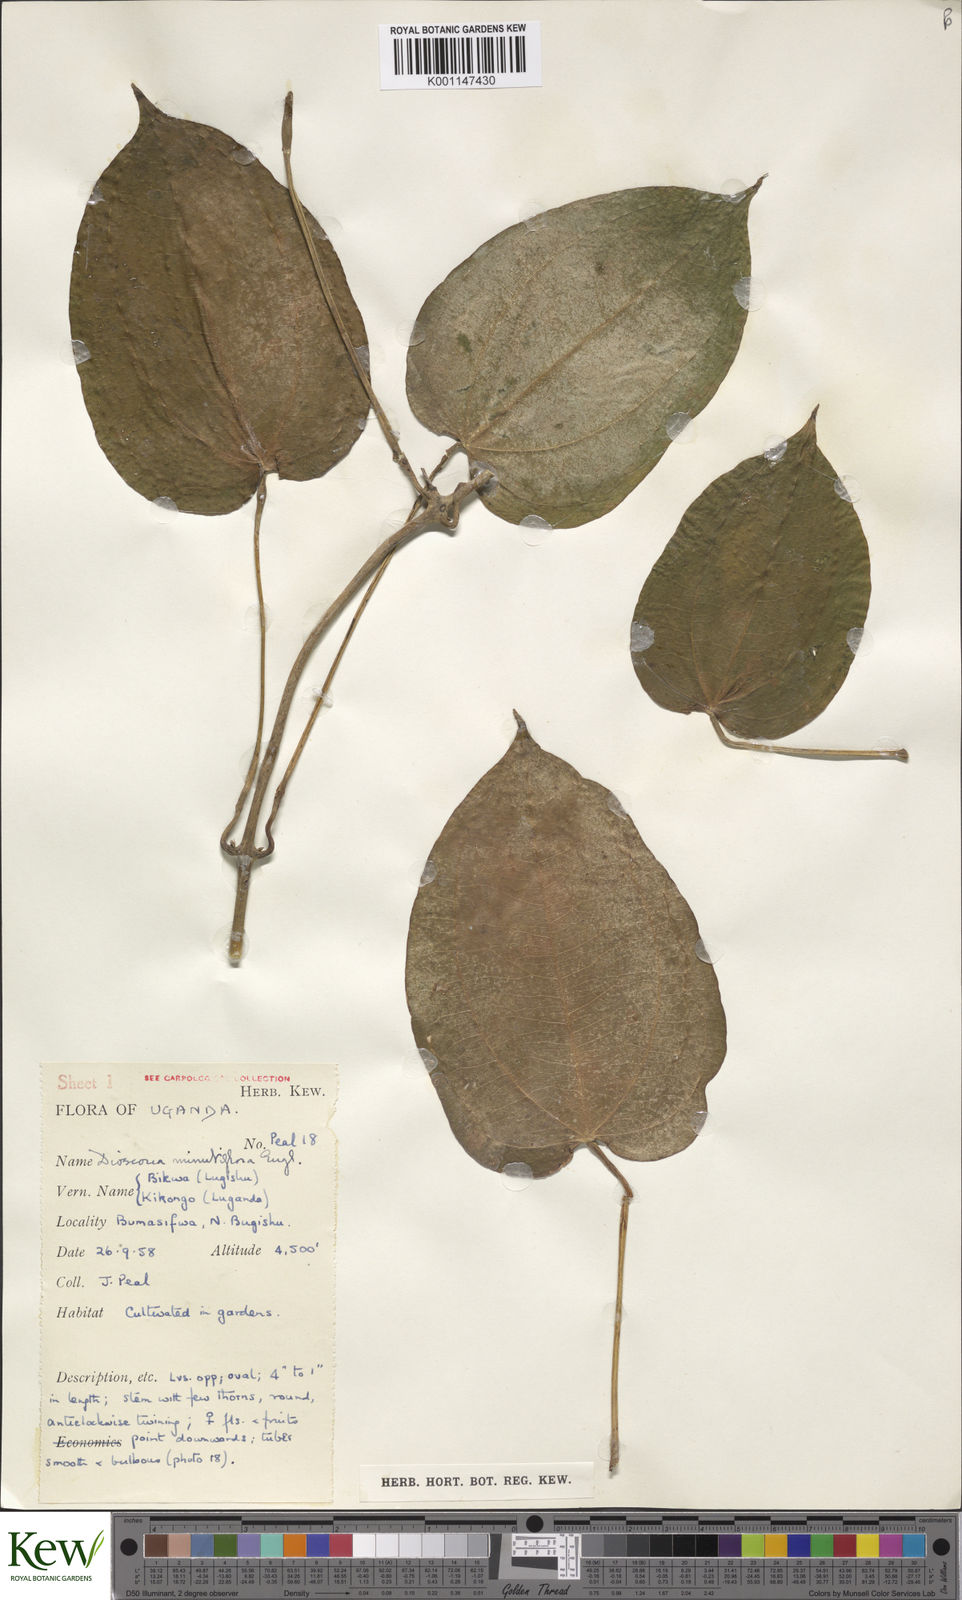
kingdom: Plantae
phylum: Tracheophyta
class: Liliopsida
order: Dioscoreales
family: Dioscoreaceae
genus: Dioscorea
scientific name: Dioscorea minutiflora
